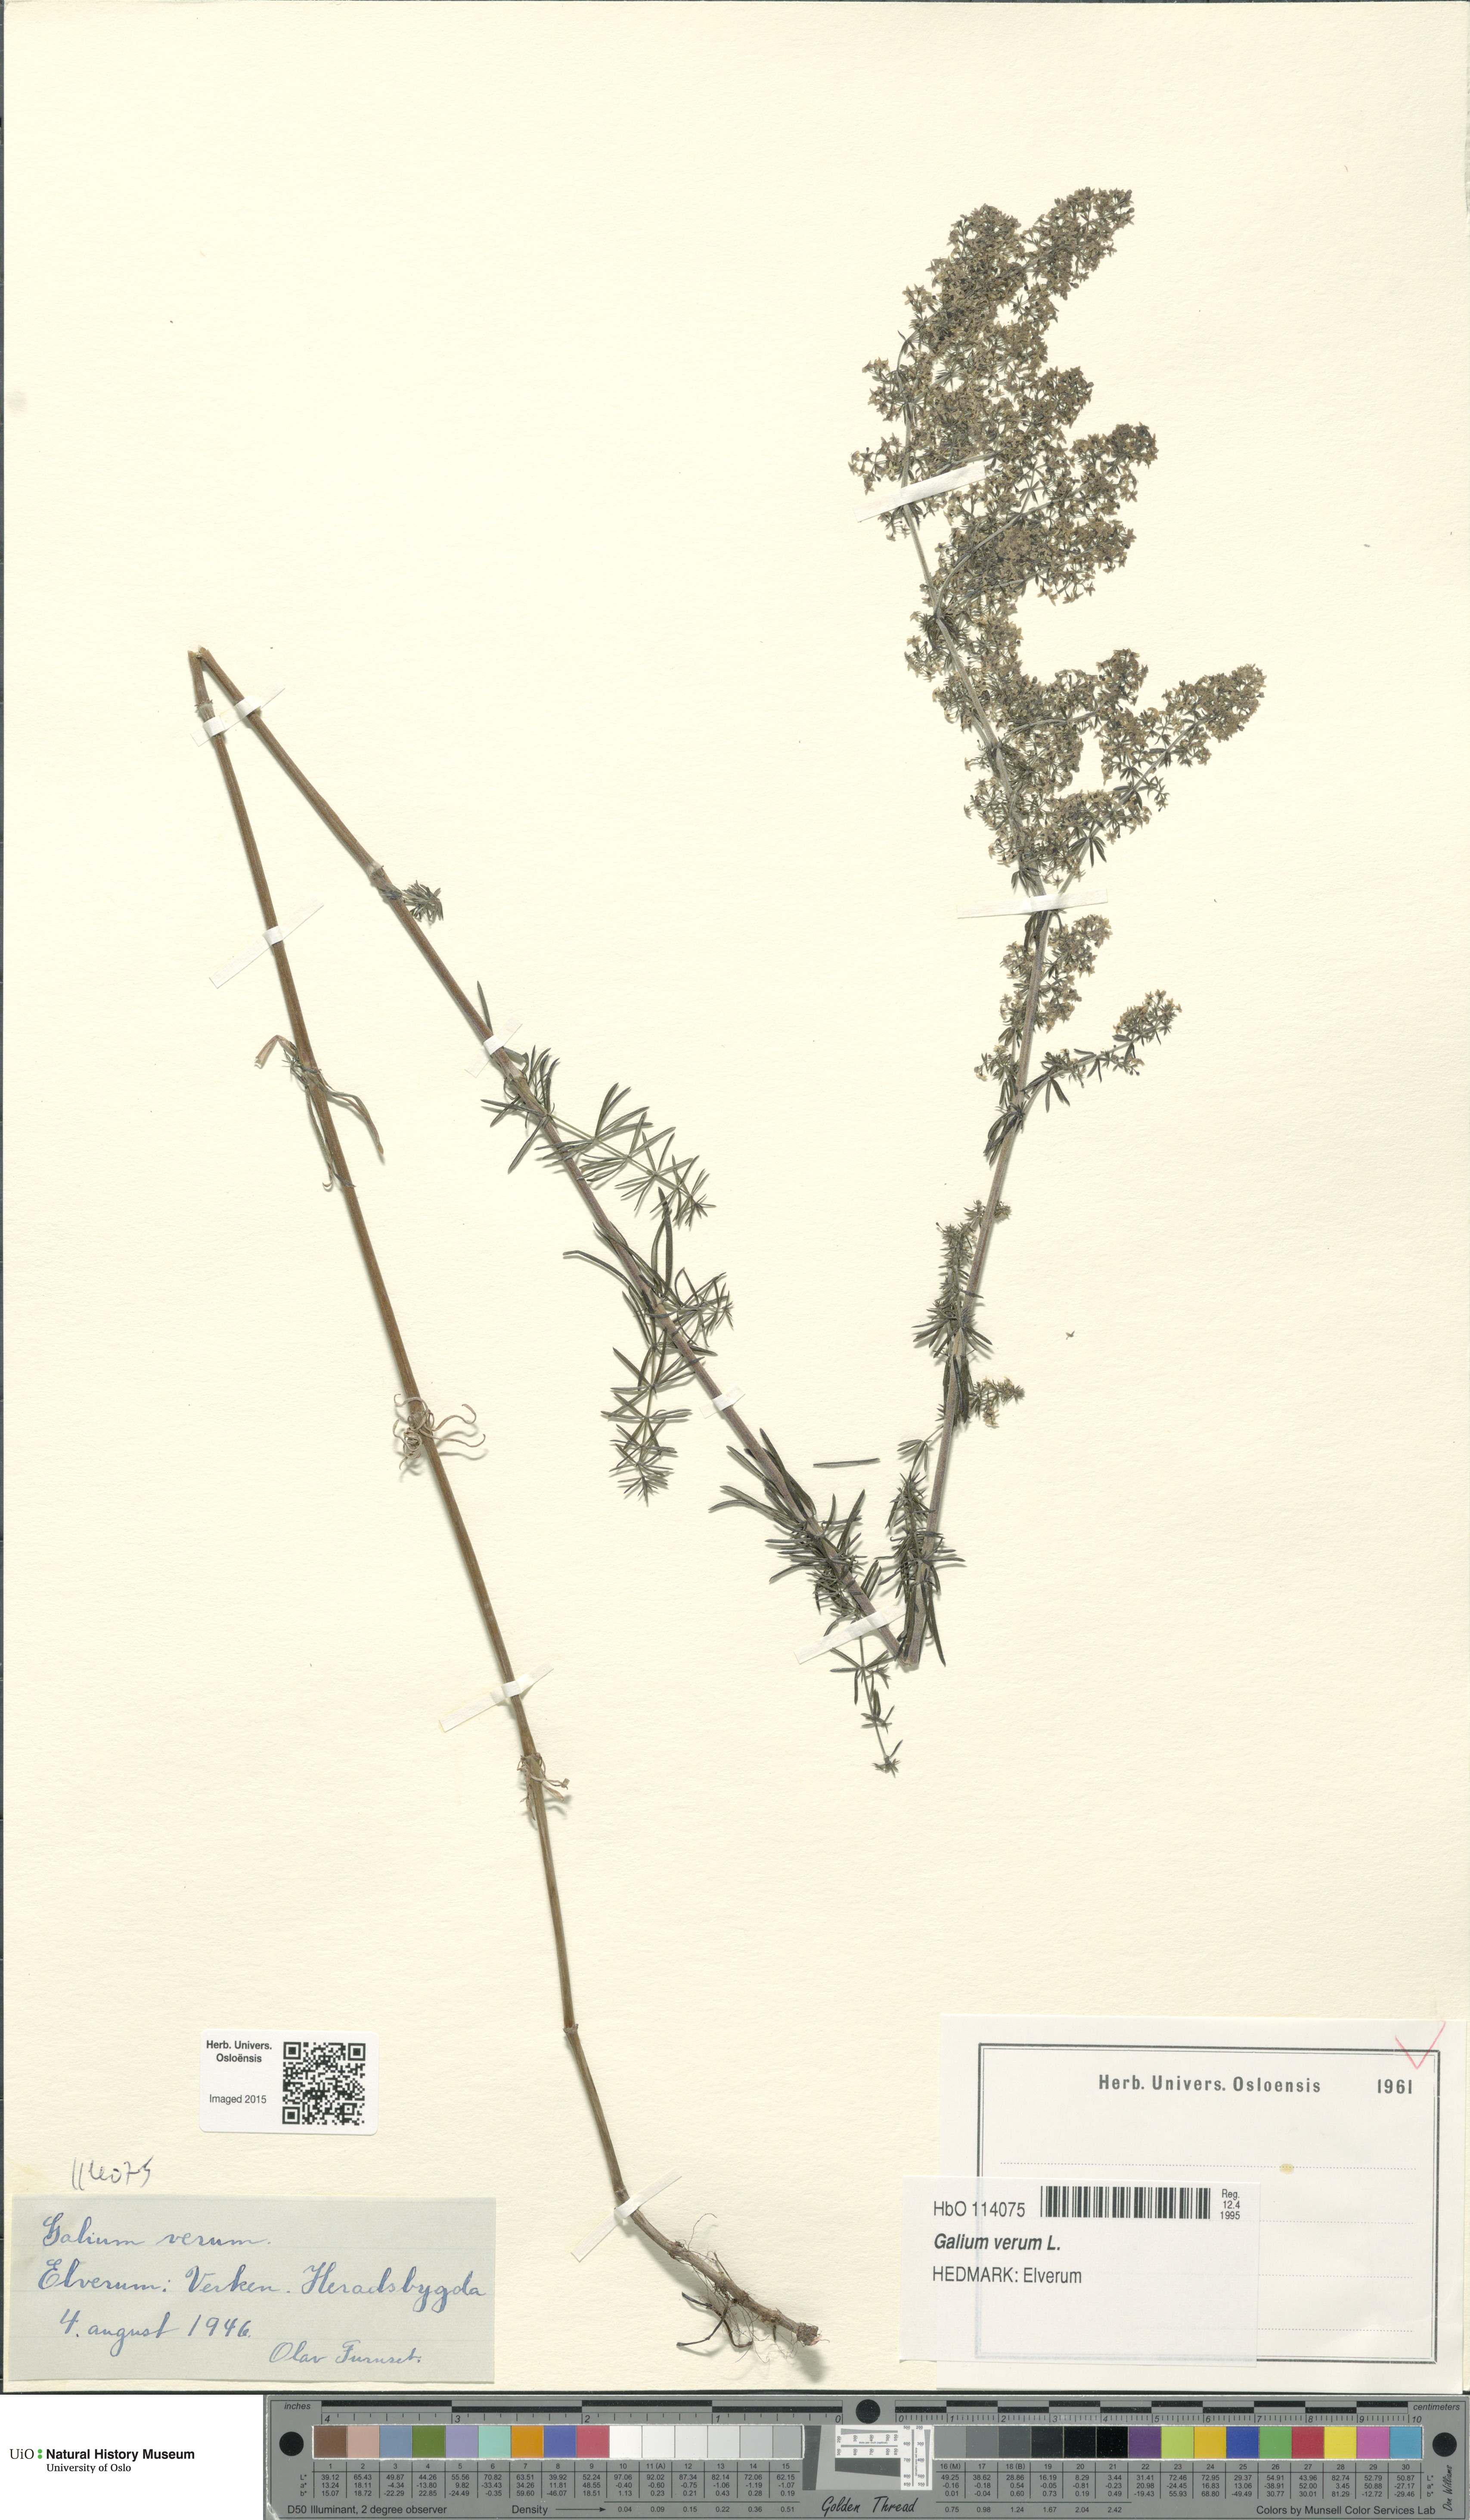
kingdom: Plantae
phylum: Tracheophyta
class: Magnoliopsida
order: Gentianales
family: Rubiaceae
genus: Galium
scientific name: Galium verum
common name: Lady's bedstraw
